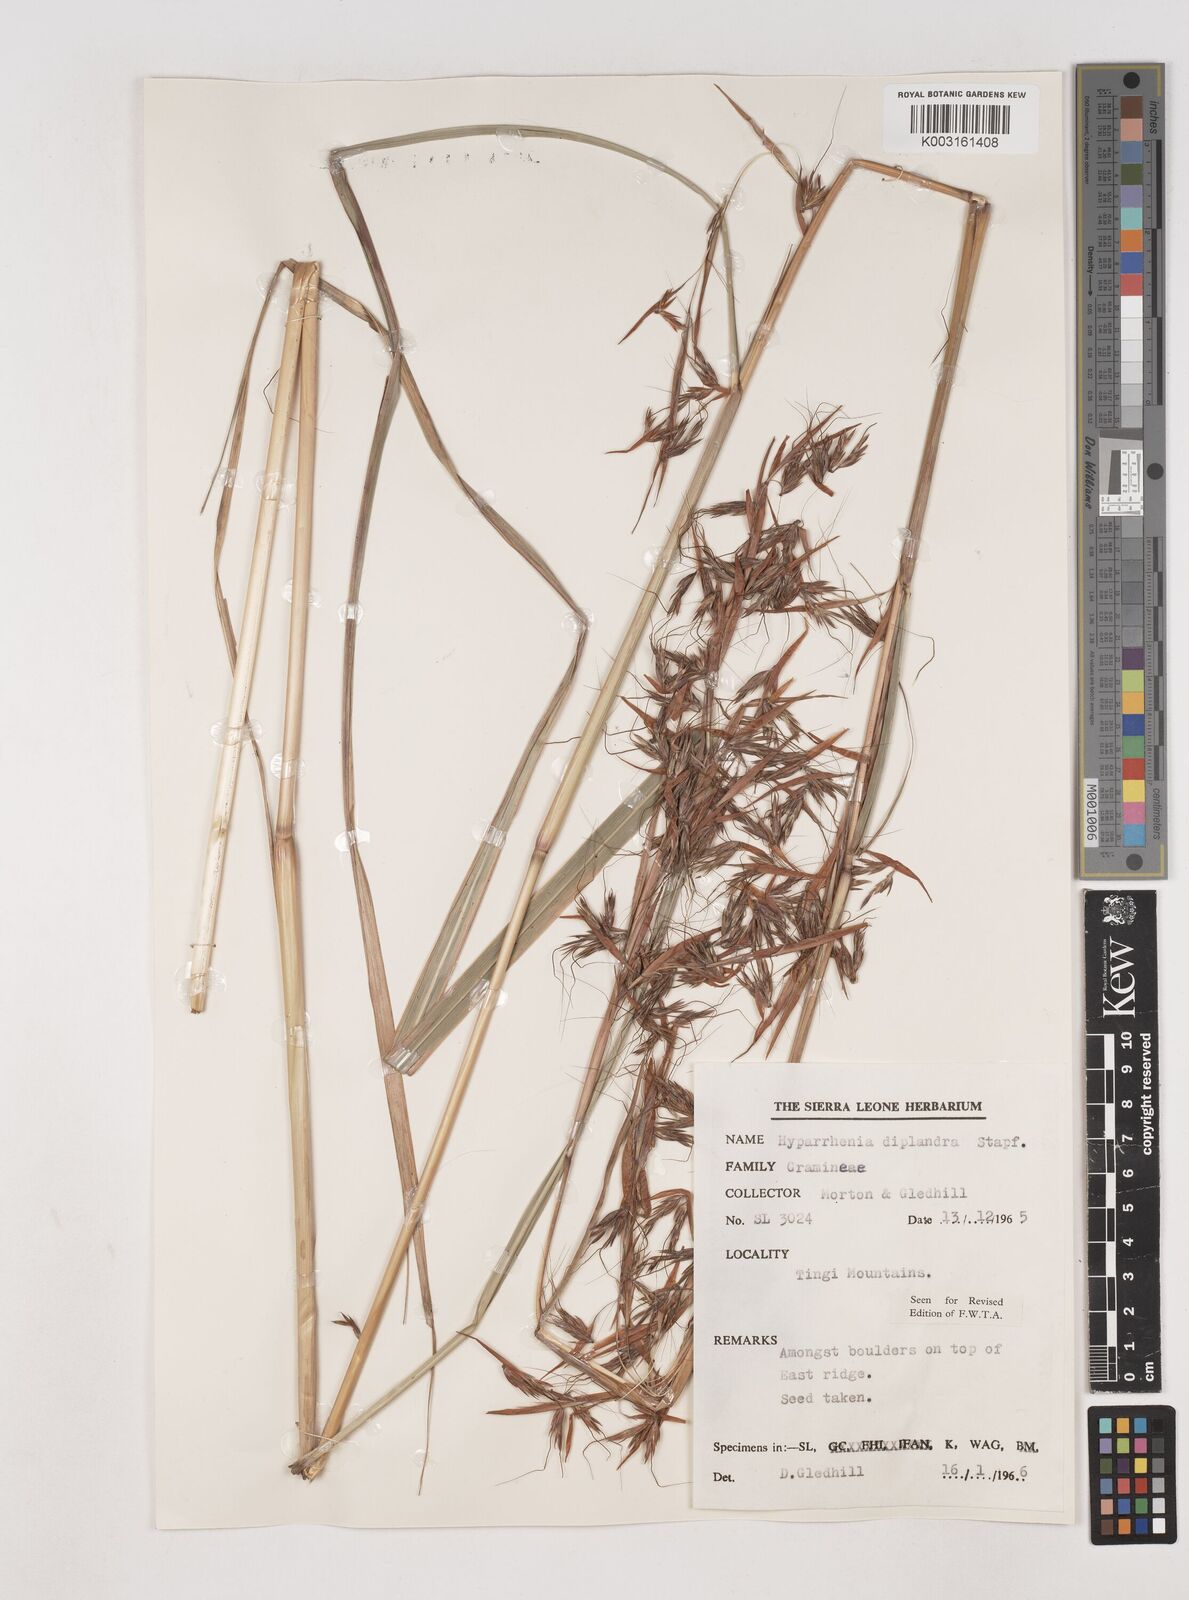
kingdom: Plantae
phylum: Tracheophyta
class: Liliopsida
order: Poales
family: Poaceae
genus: Hyparrhenia
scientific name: Hyparrhenia diplandra
